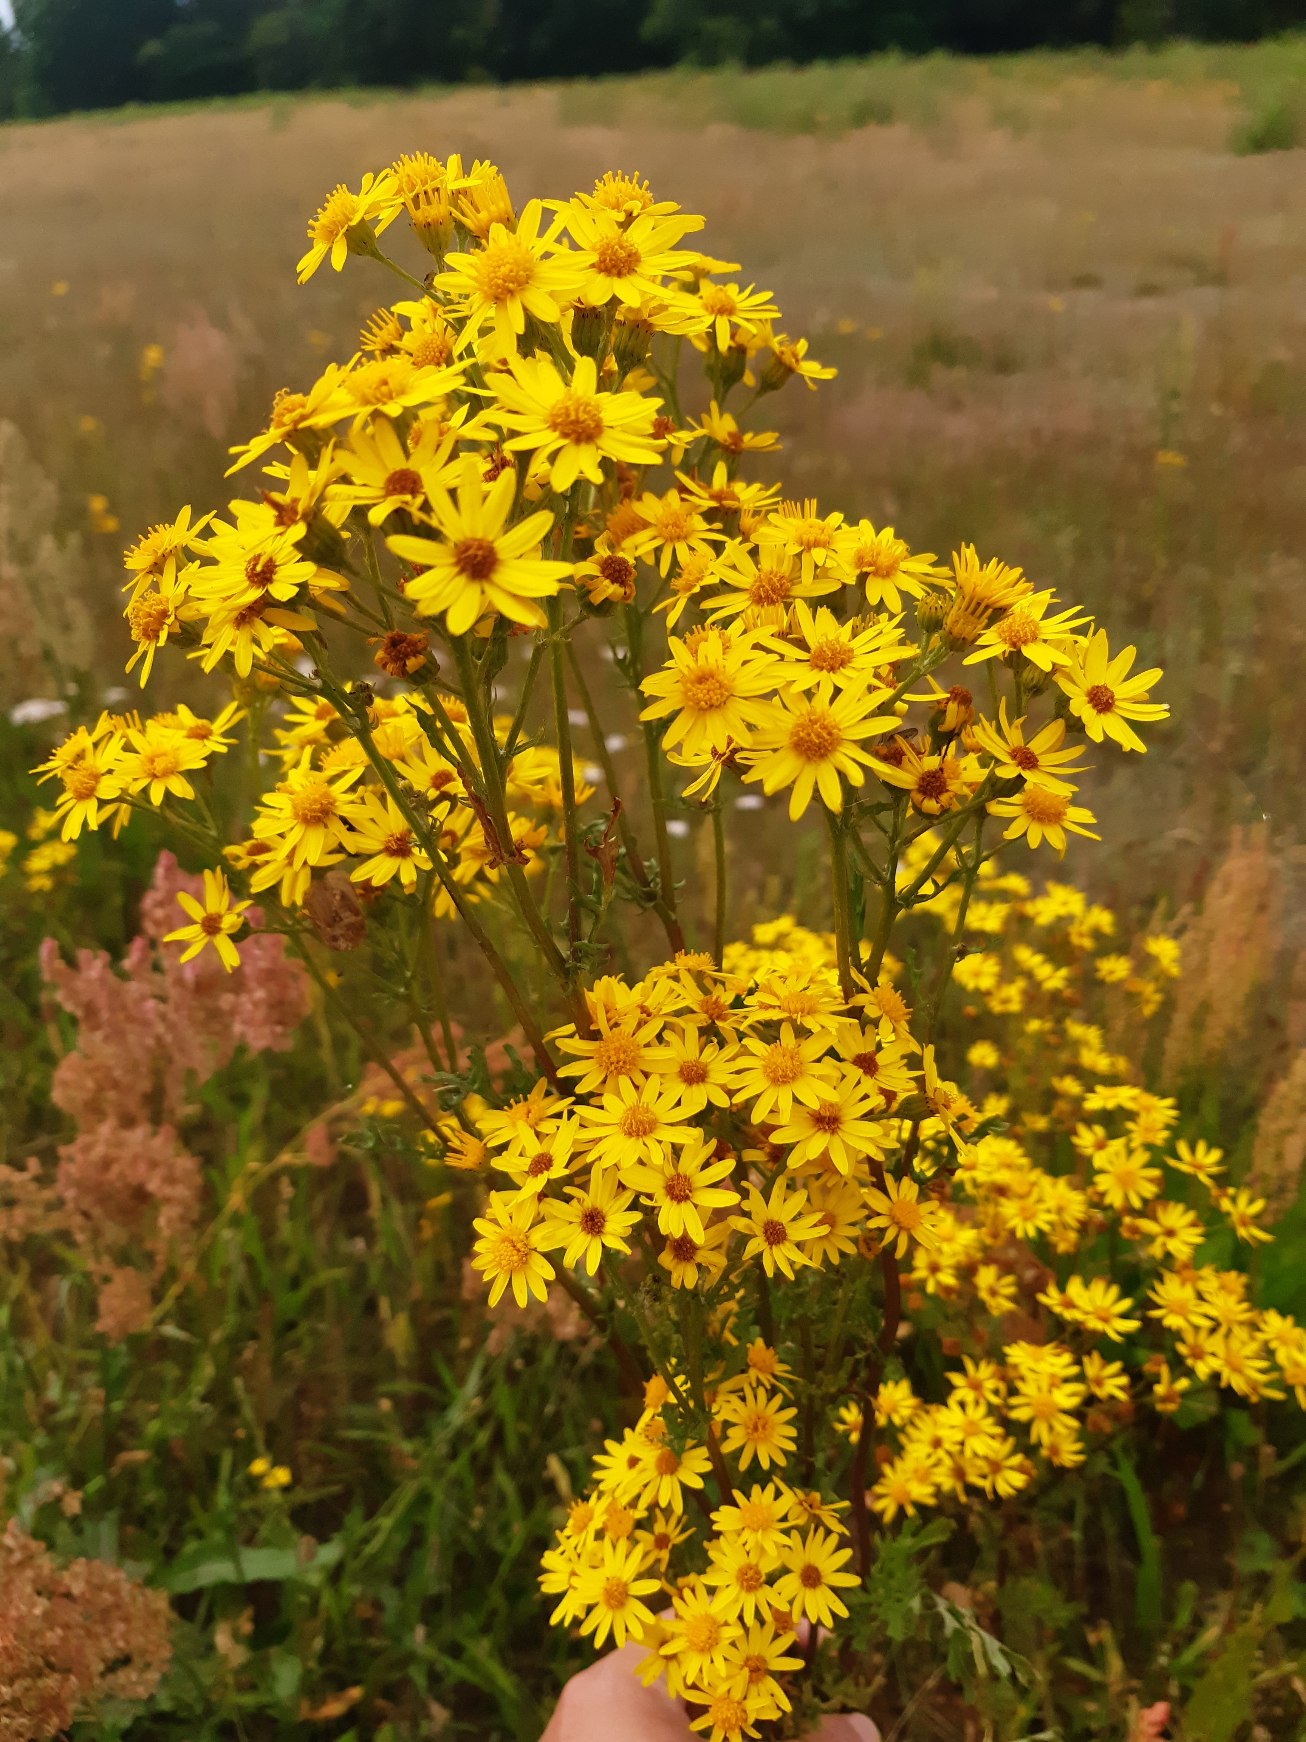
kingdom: Plantae
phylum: Tracheophyta
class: Magnoliopsida
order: Asterales
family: Asteraceae
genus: Jacobaea
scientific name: Jacobaea vulgaris
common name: Eng-brandbæger
